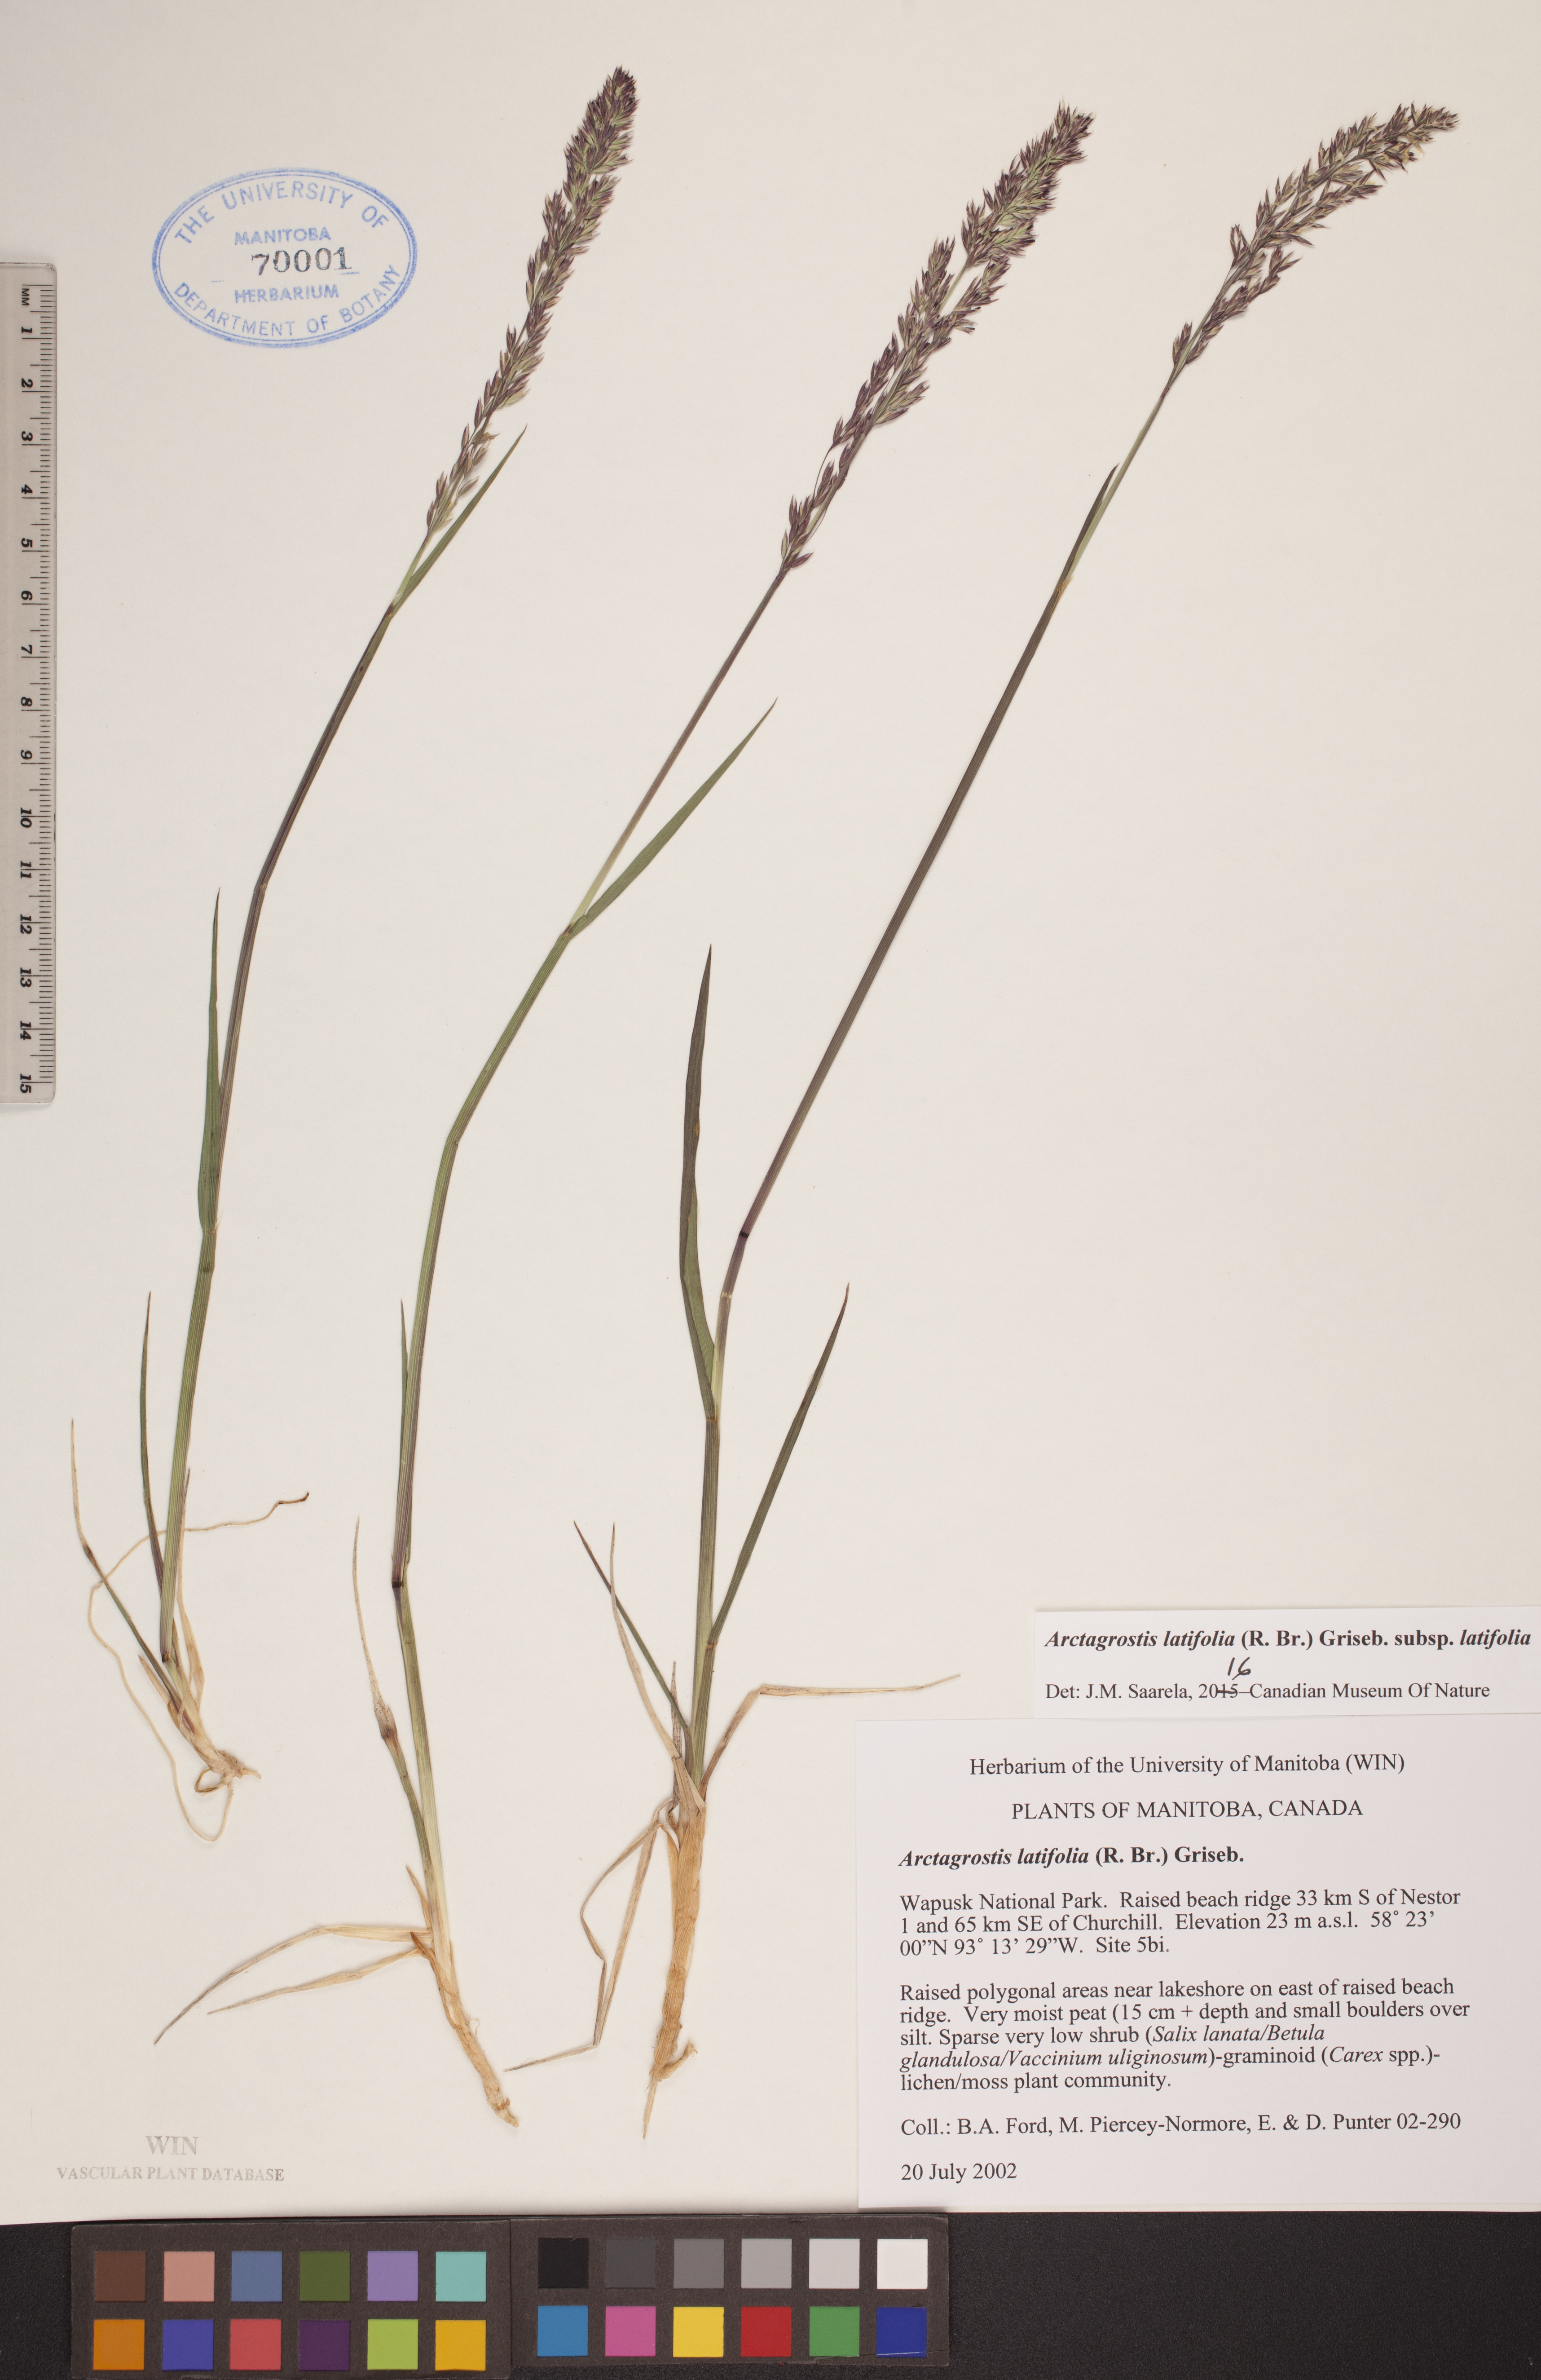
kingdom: Plantae
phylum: Tracheophyta
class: Liliopsida
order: Poales
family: Poaceae
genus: Arctagrostis
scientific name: Arctagrostis latifolia
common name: Arctic grass
